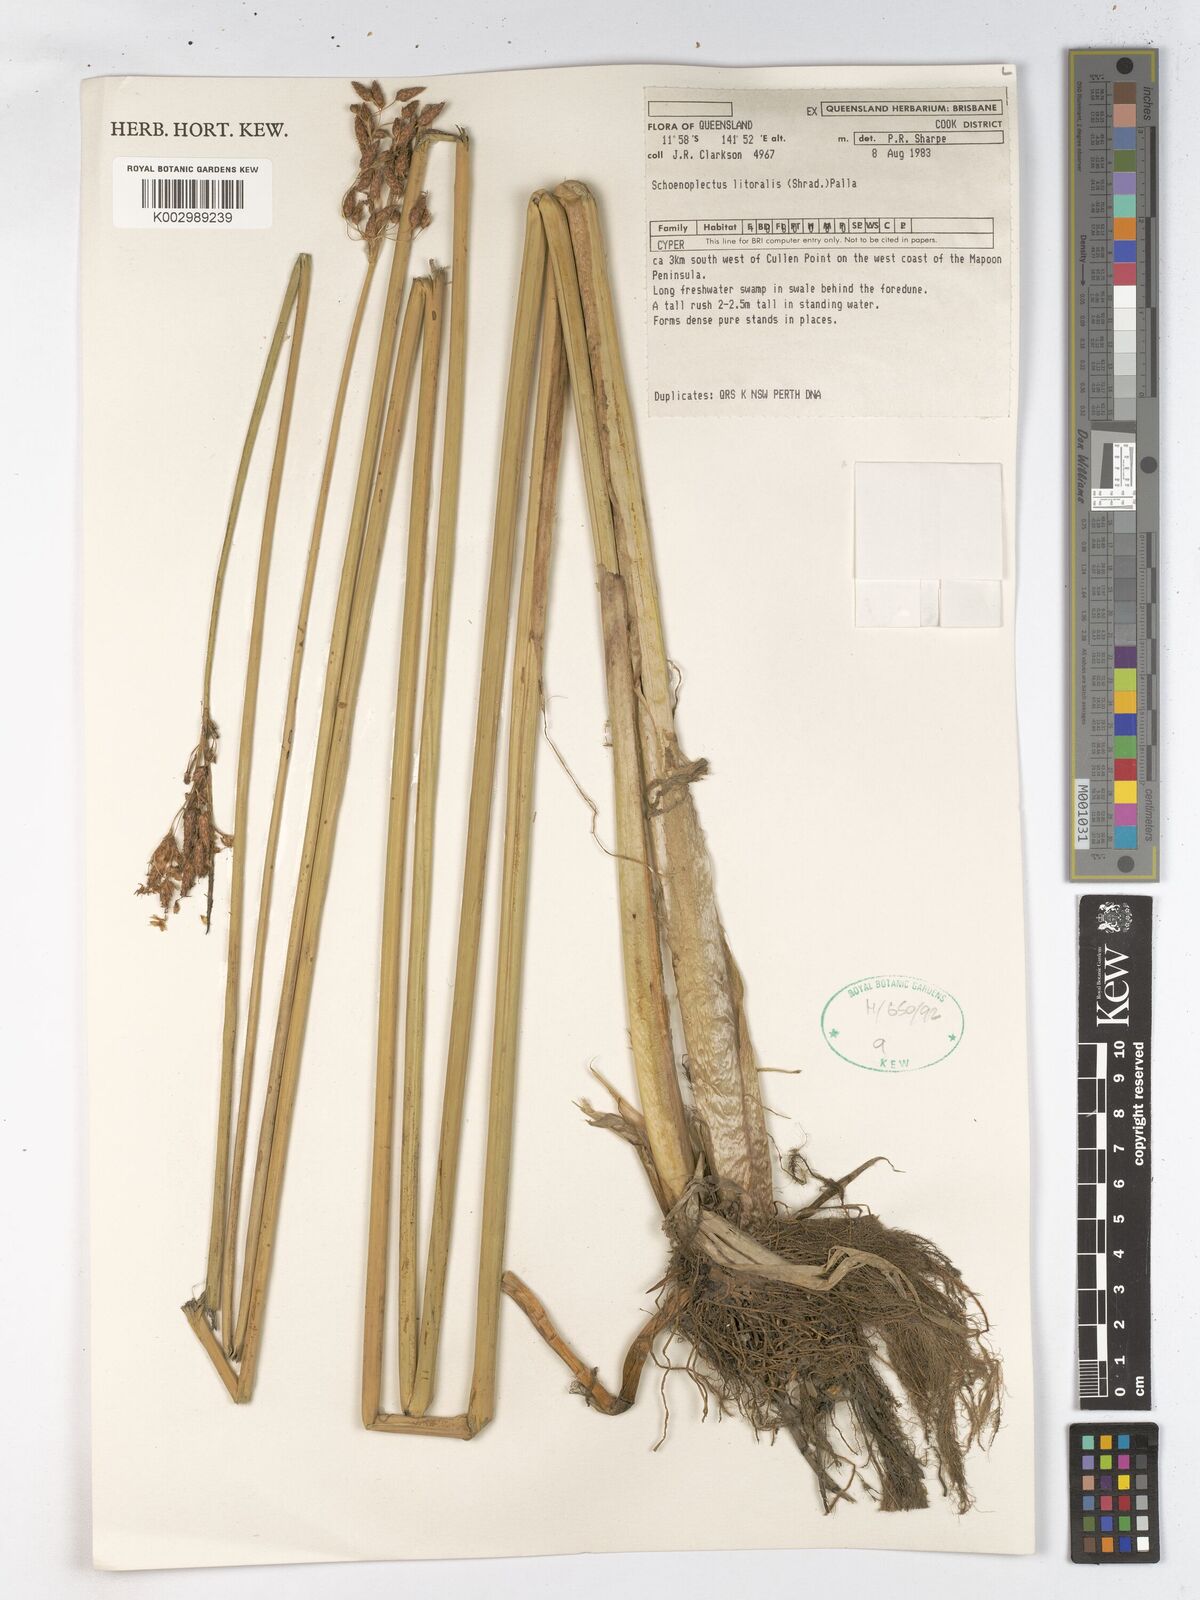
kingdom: Plantae
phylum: Tracheophyta
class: Liliopsida
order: Poales
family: Cyperaceae
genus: Schoenoplectus
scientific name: Schoenoplectus litoralis
